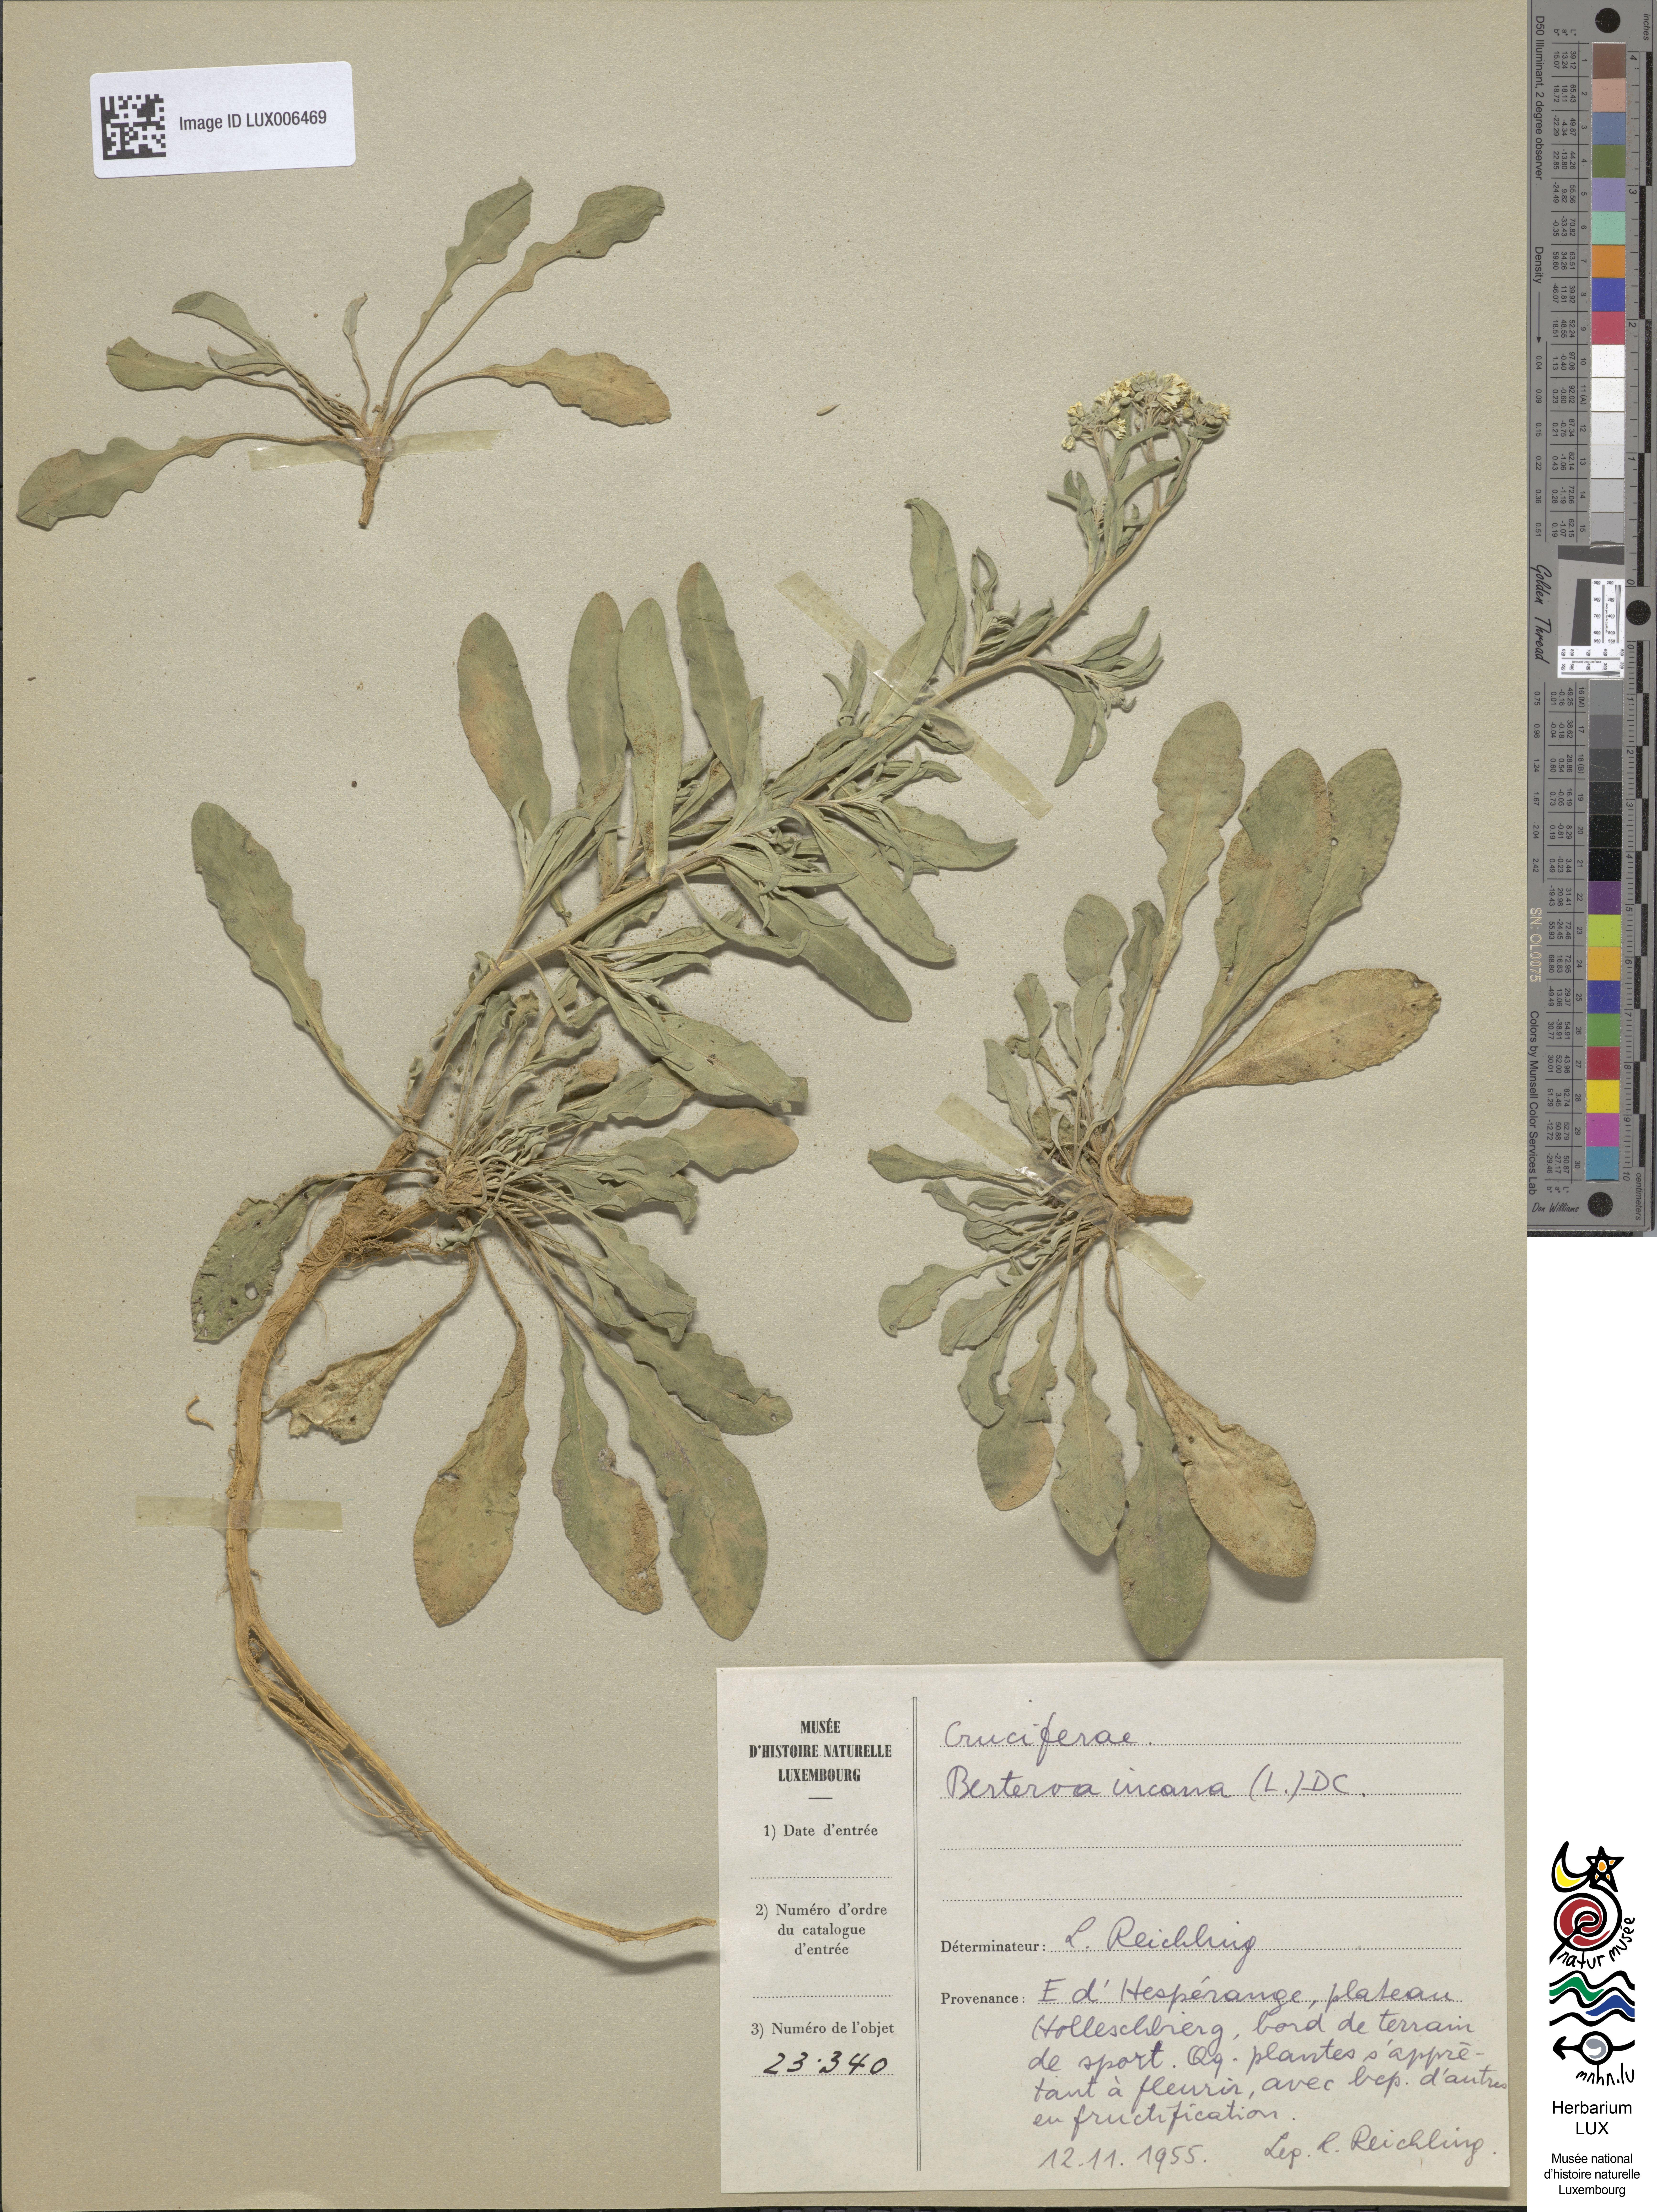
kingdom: Plantae
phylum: Tracheophyta
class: Magnoliopsida
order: Brassicales
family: Brassicaceae
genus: Berteroa
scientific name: Berteroa incana
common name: Hoary alison
